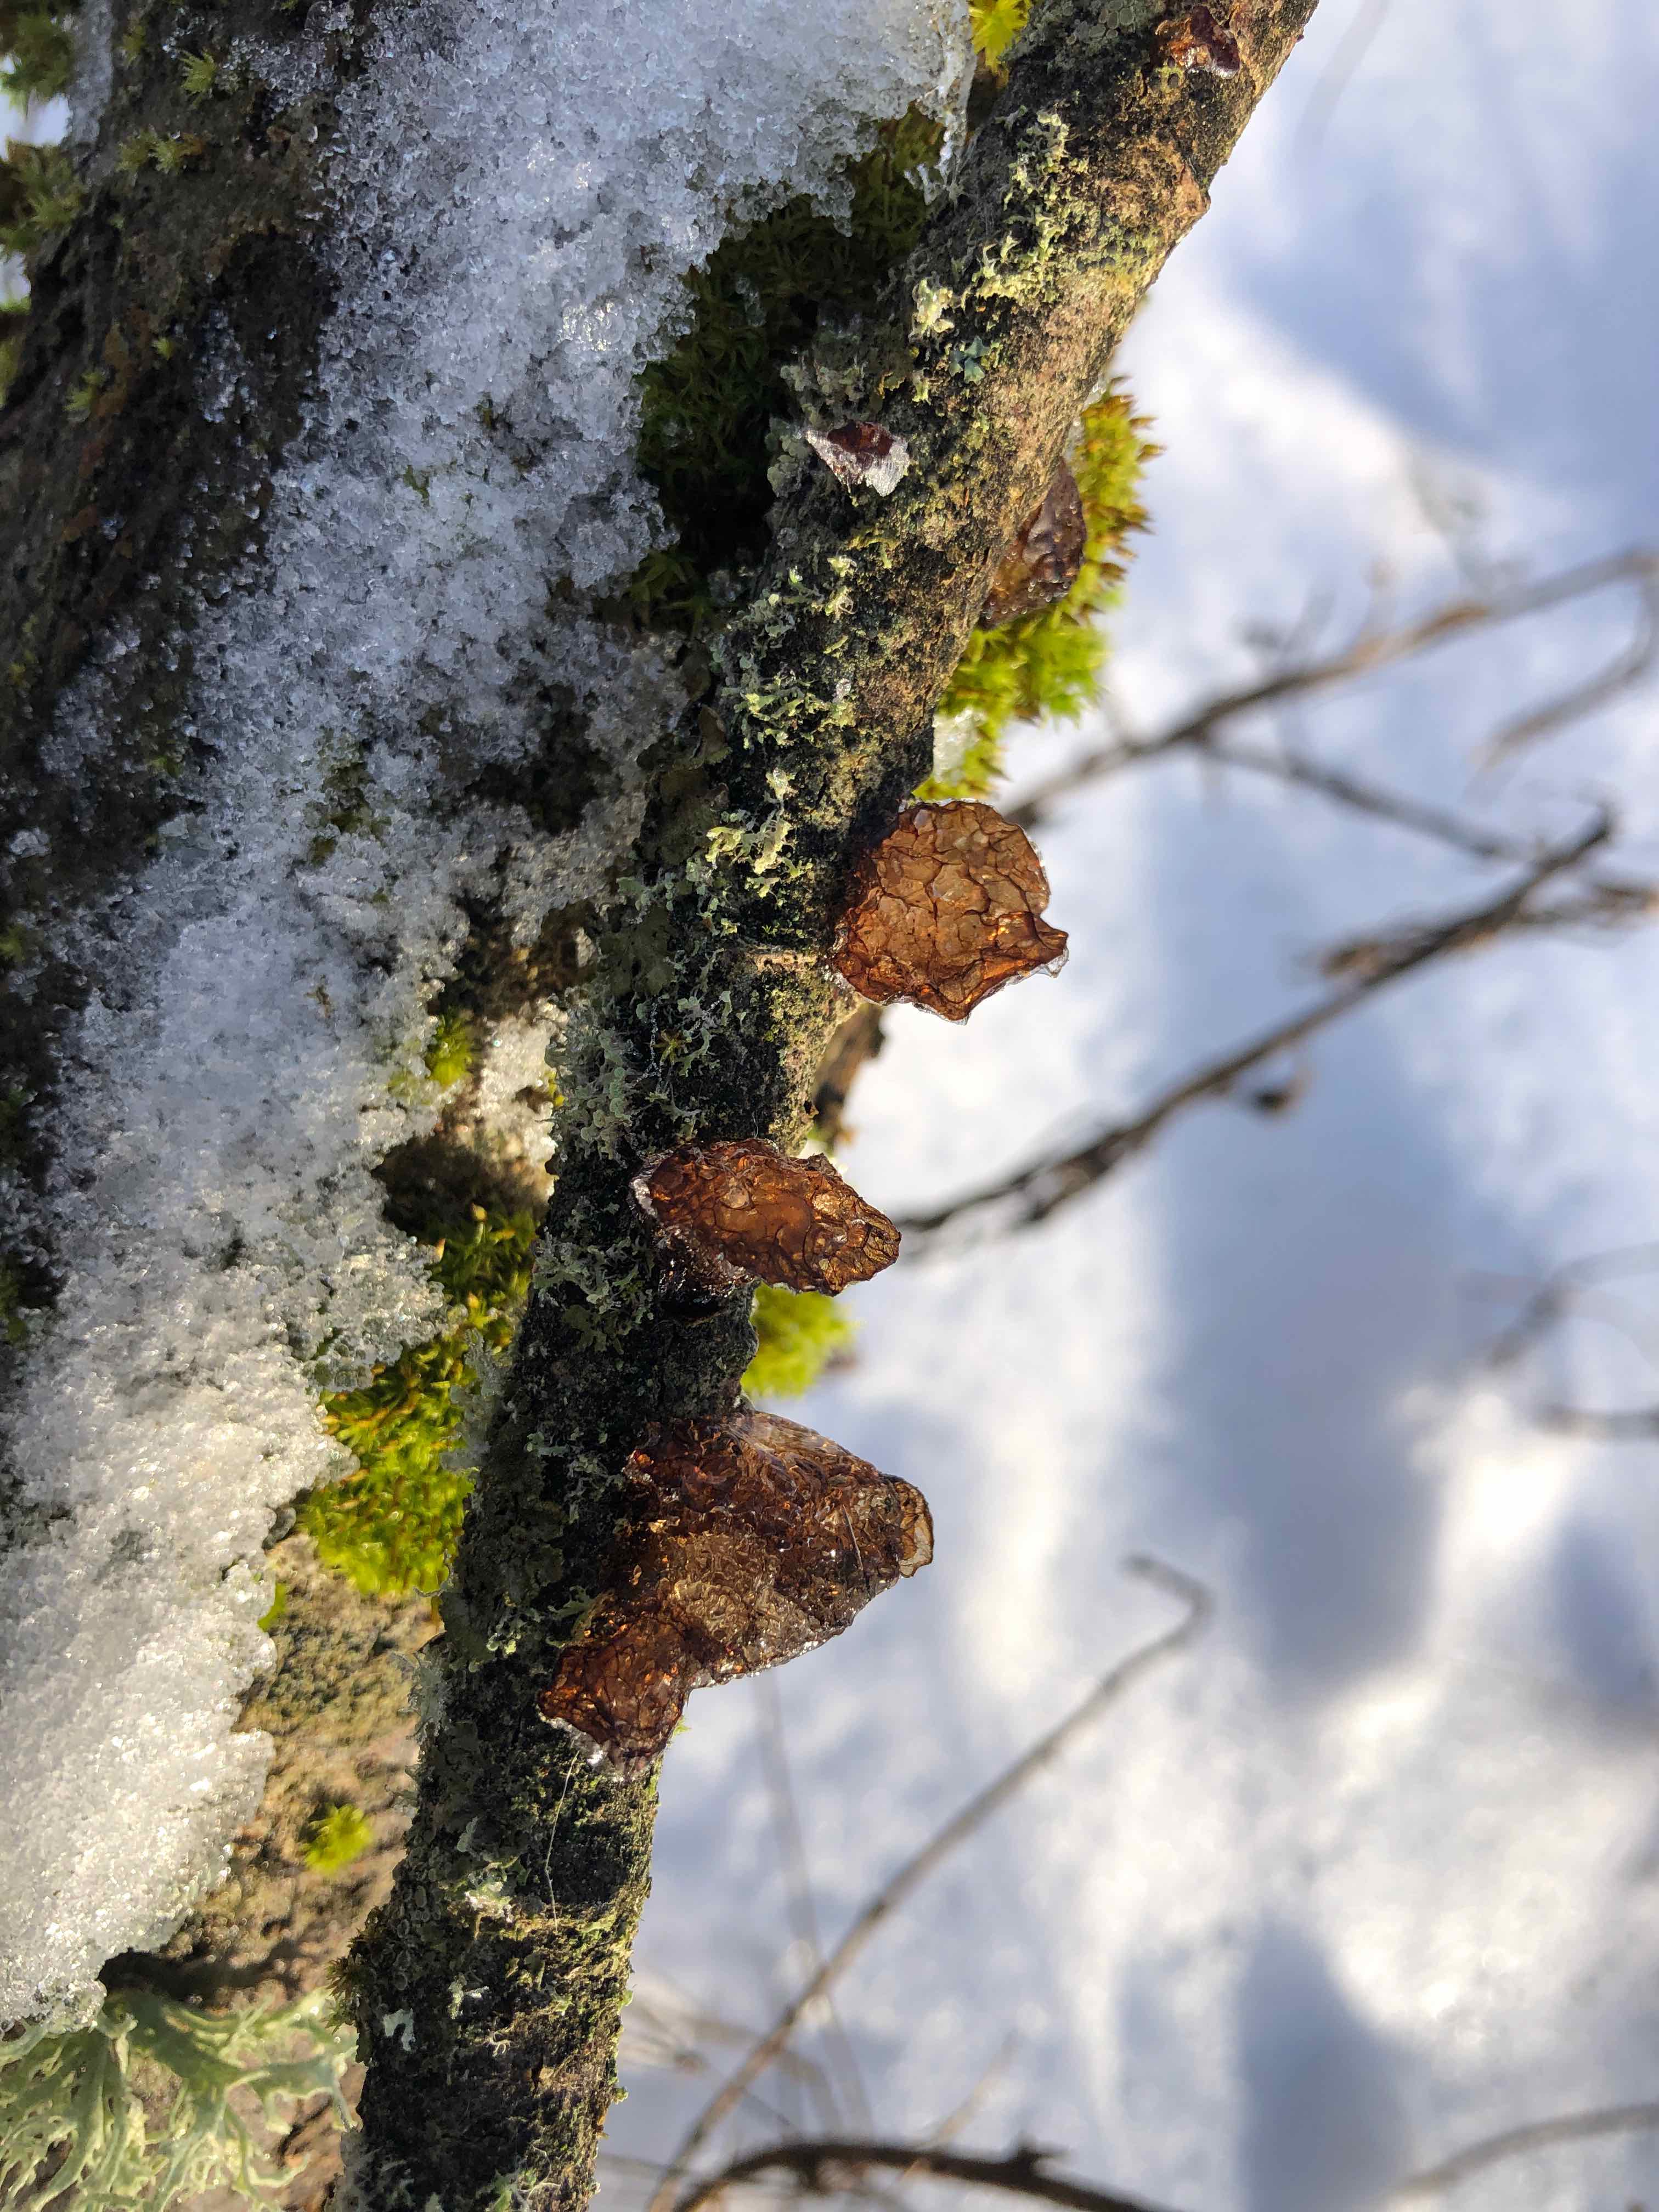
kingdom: Fungi
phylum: Basidiomycota
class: Agaricomycetes
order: Auriculariales
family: Auriculariaceae
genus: Exidia
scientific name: Exidia recisa
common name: pile-bævretop
